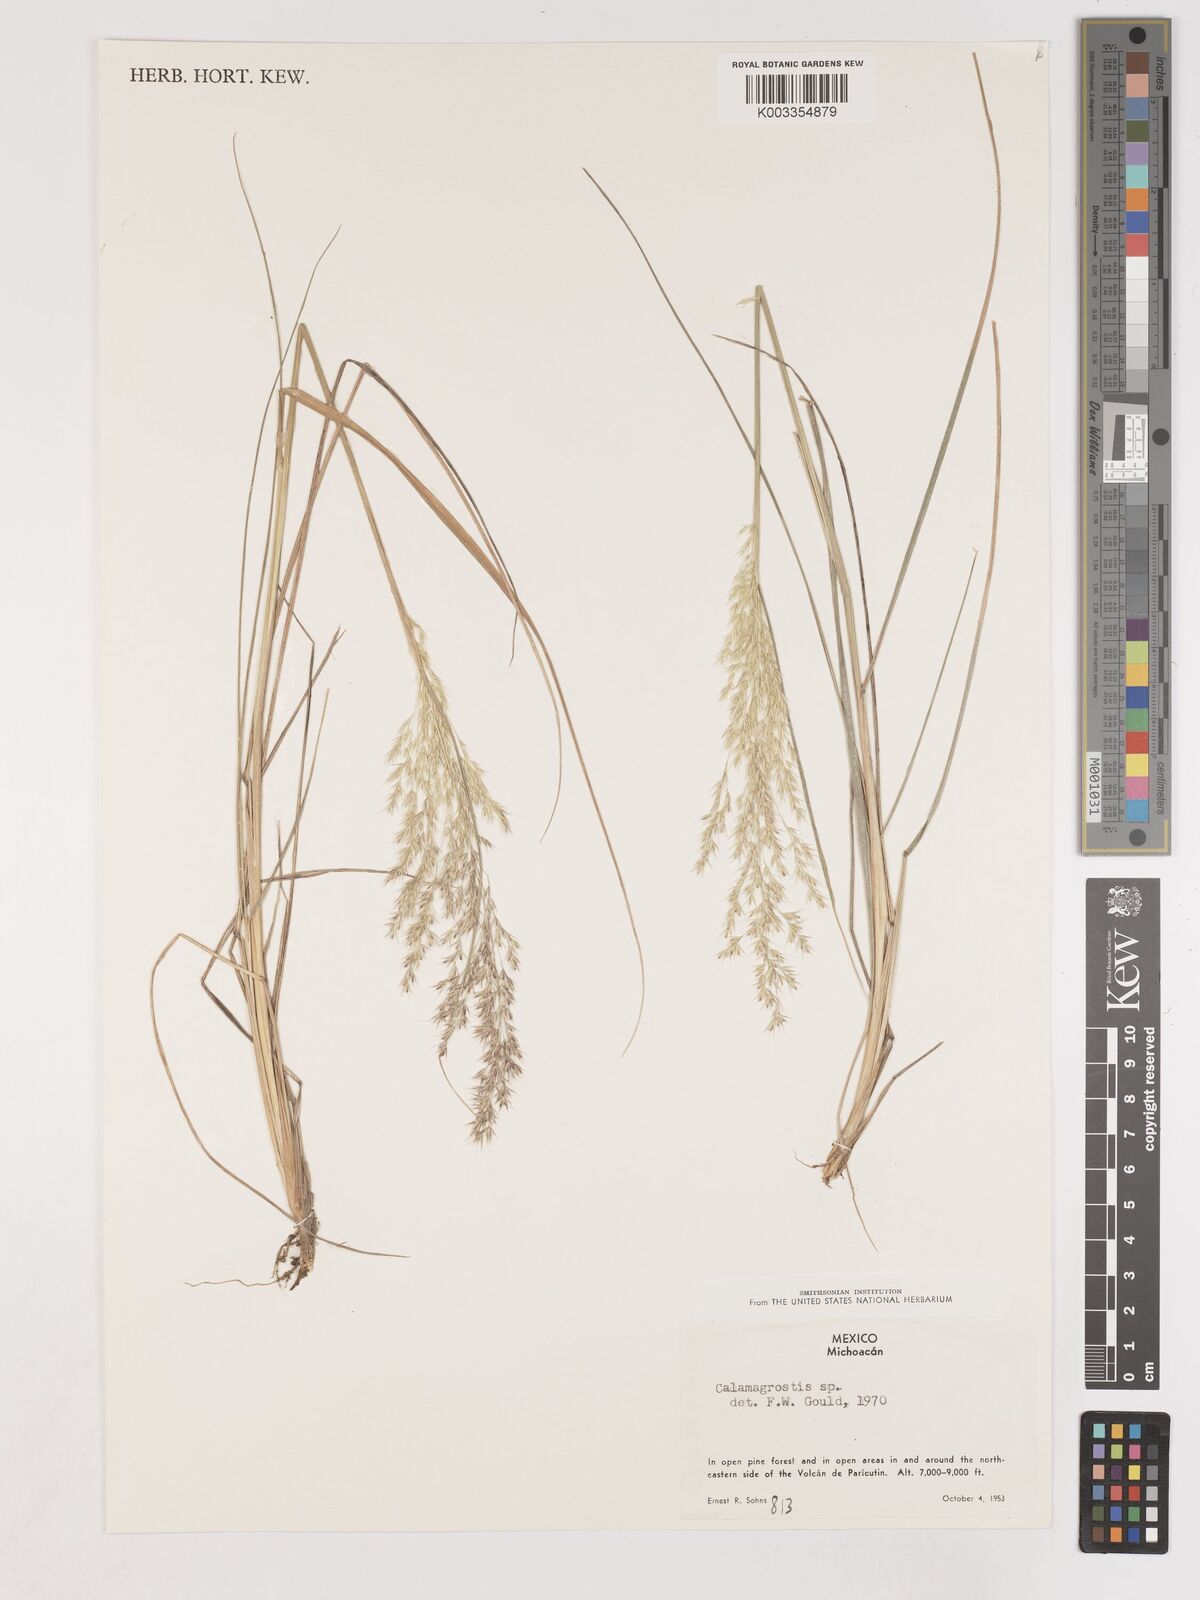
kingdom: Plantae
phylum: Tracheophyta
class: Liliopsida
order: Poales
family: Poaceae
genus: Calamagrostis
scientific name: Calamagrostis
